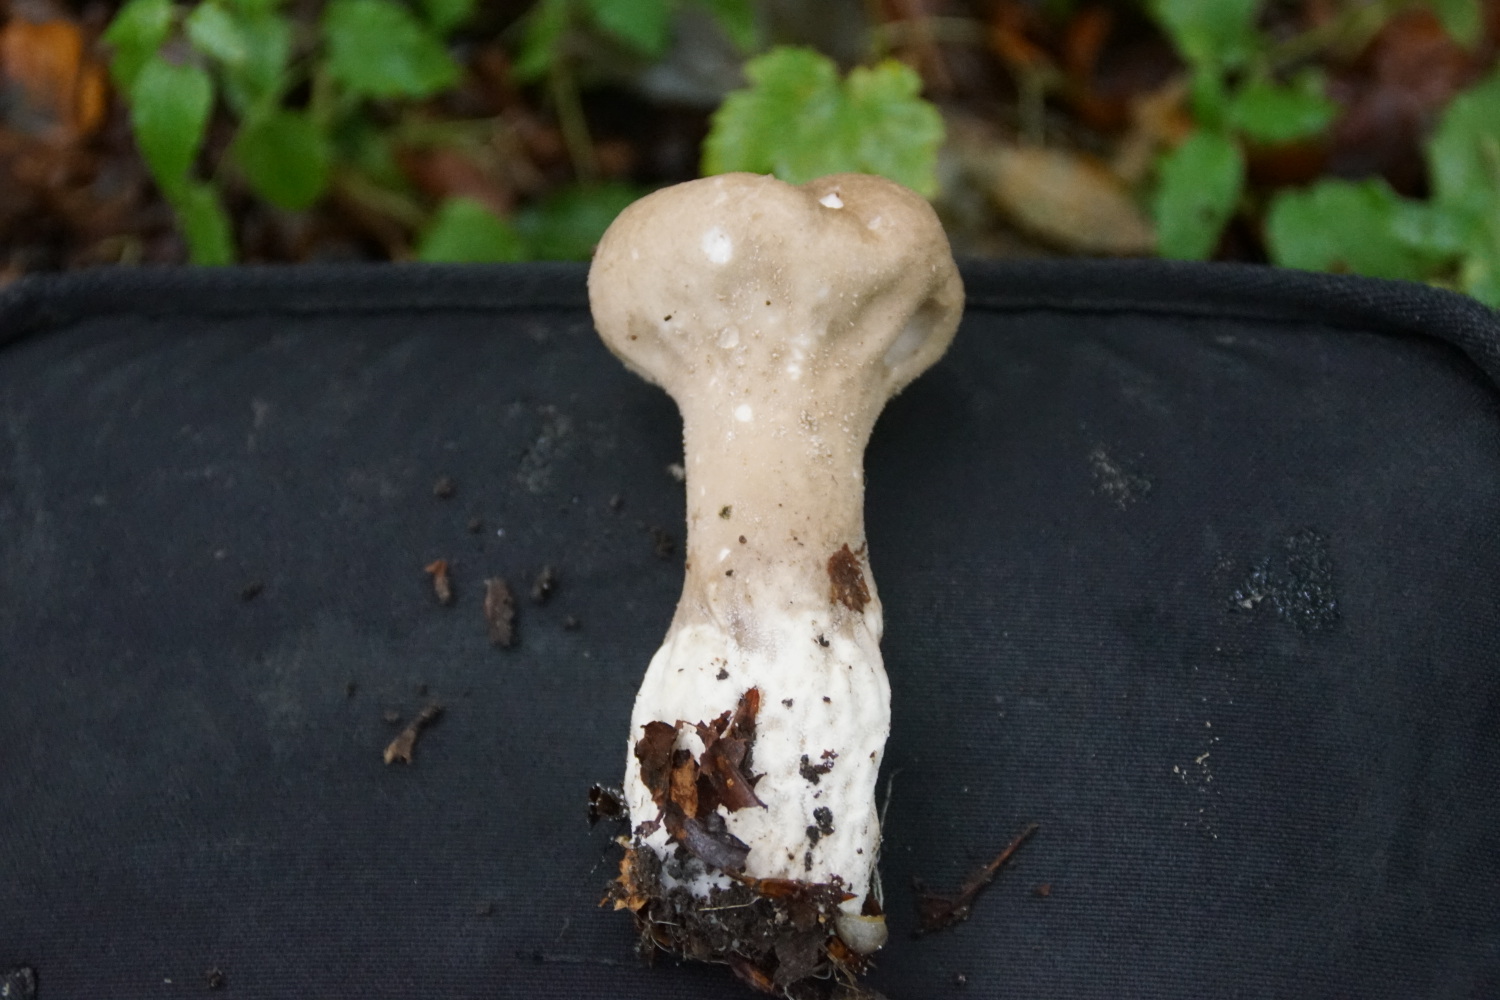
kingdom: Fungi
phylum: Basidiomycota
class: Agaricomycetes
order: Agaricales
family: Lycoperdaceae
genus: Lycoperdon
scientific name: Lycoperdon excipuliforme
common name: højstokket støvbold
